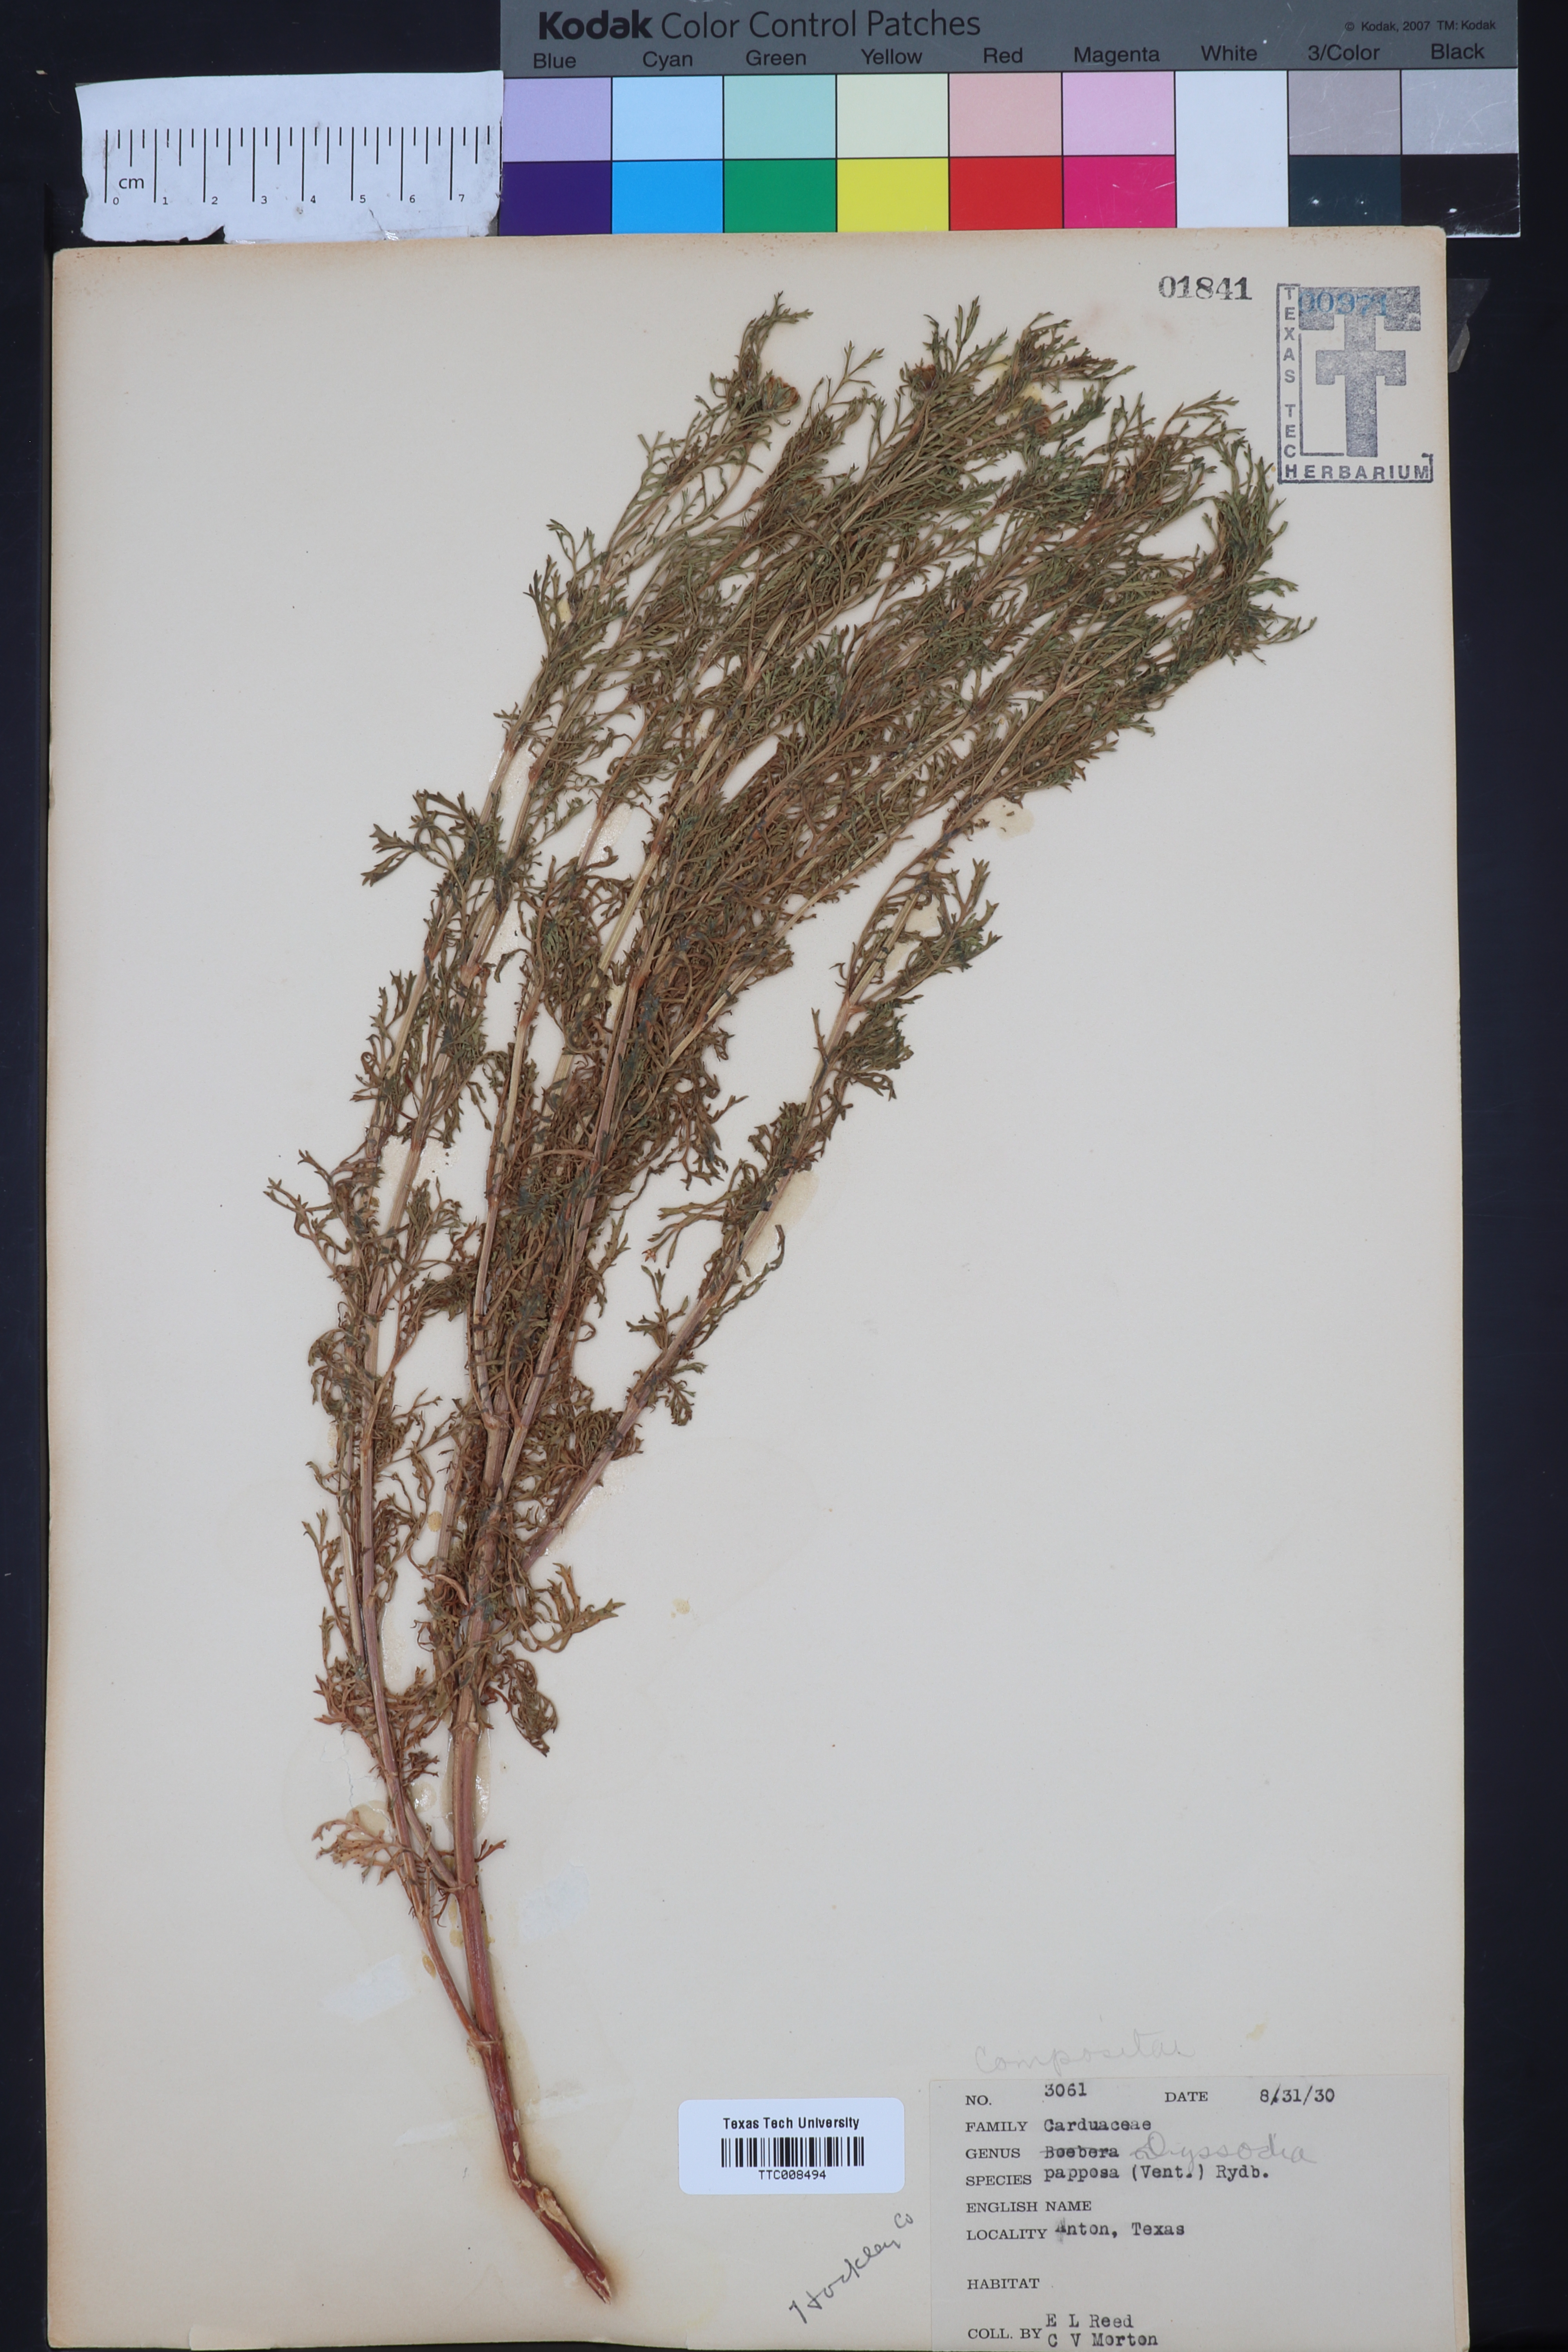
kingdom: Plantae
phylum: Tracheophyta
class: Magnoliopsida
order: Asterales
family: Asteraceae
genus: Dyssodia
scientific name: Dyssodia papposa
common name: Dogweed
